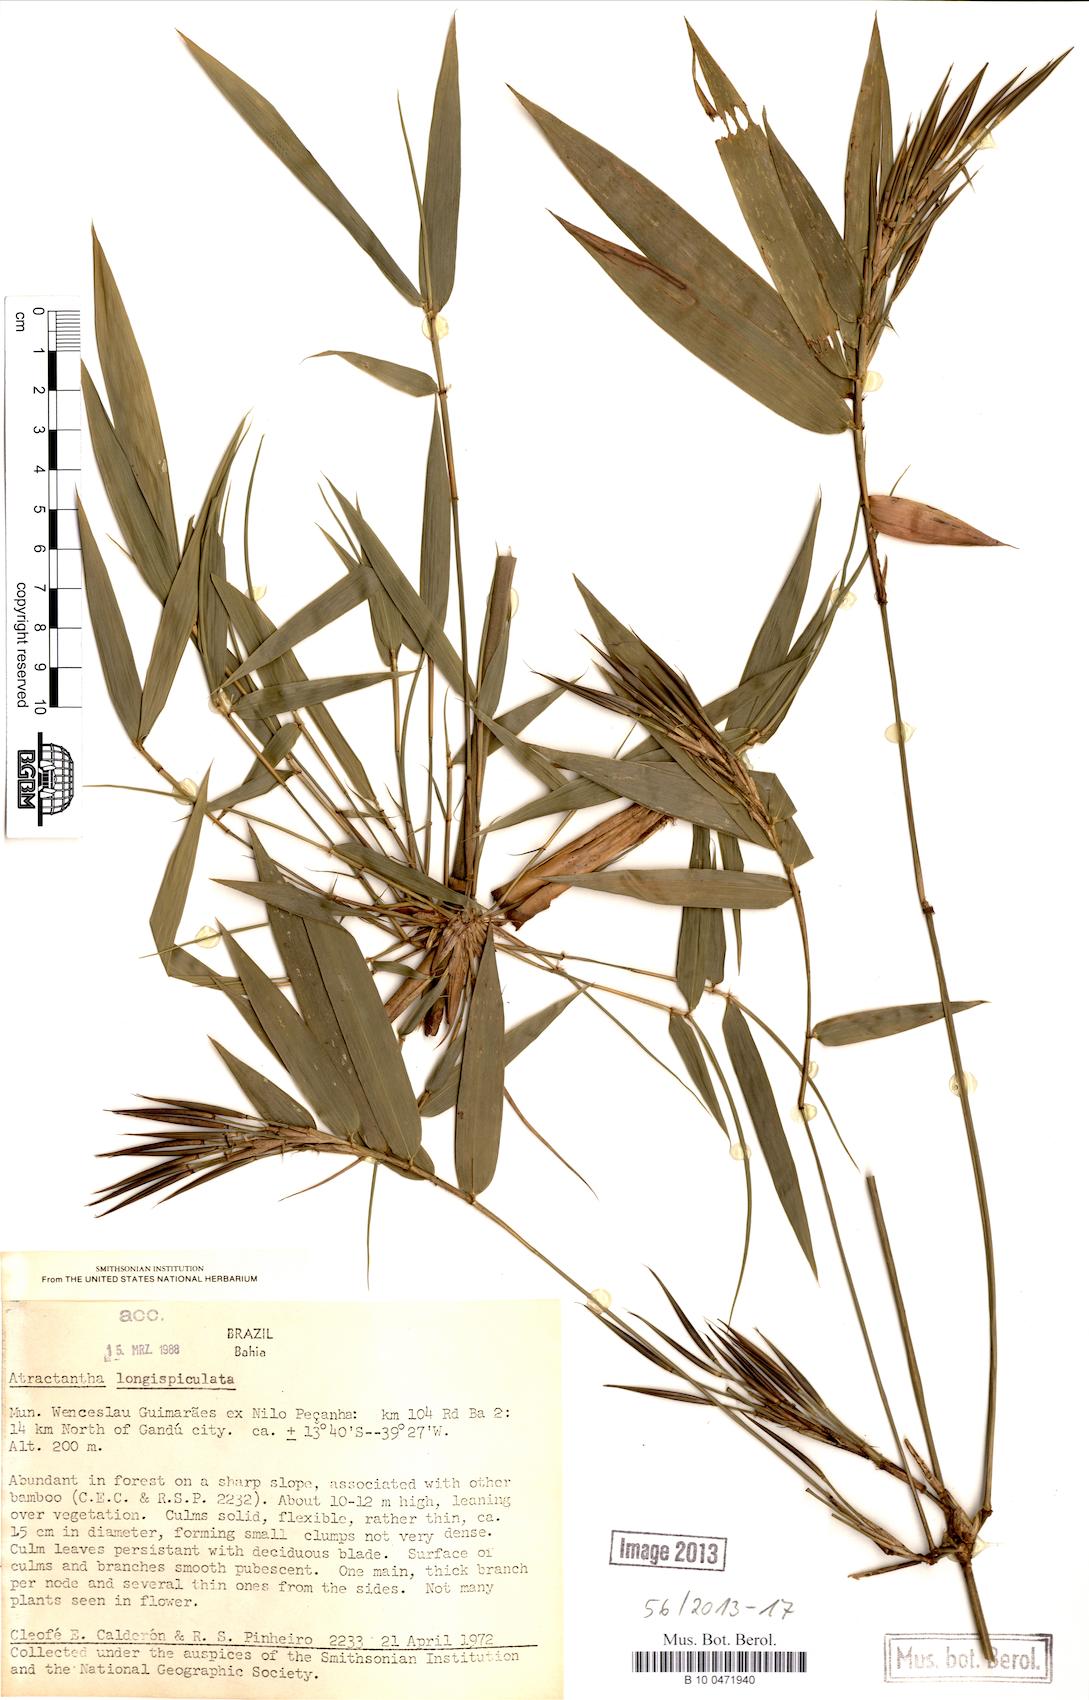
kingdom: Plantae
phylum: Tracheophyta
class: Liliopsida
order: Poales
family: Poaceae
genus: Atractantha
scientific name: Atractantha
